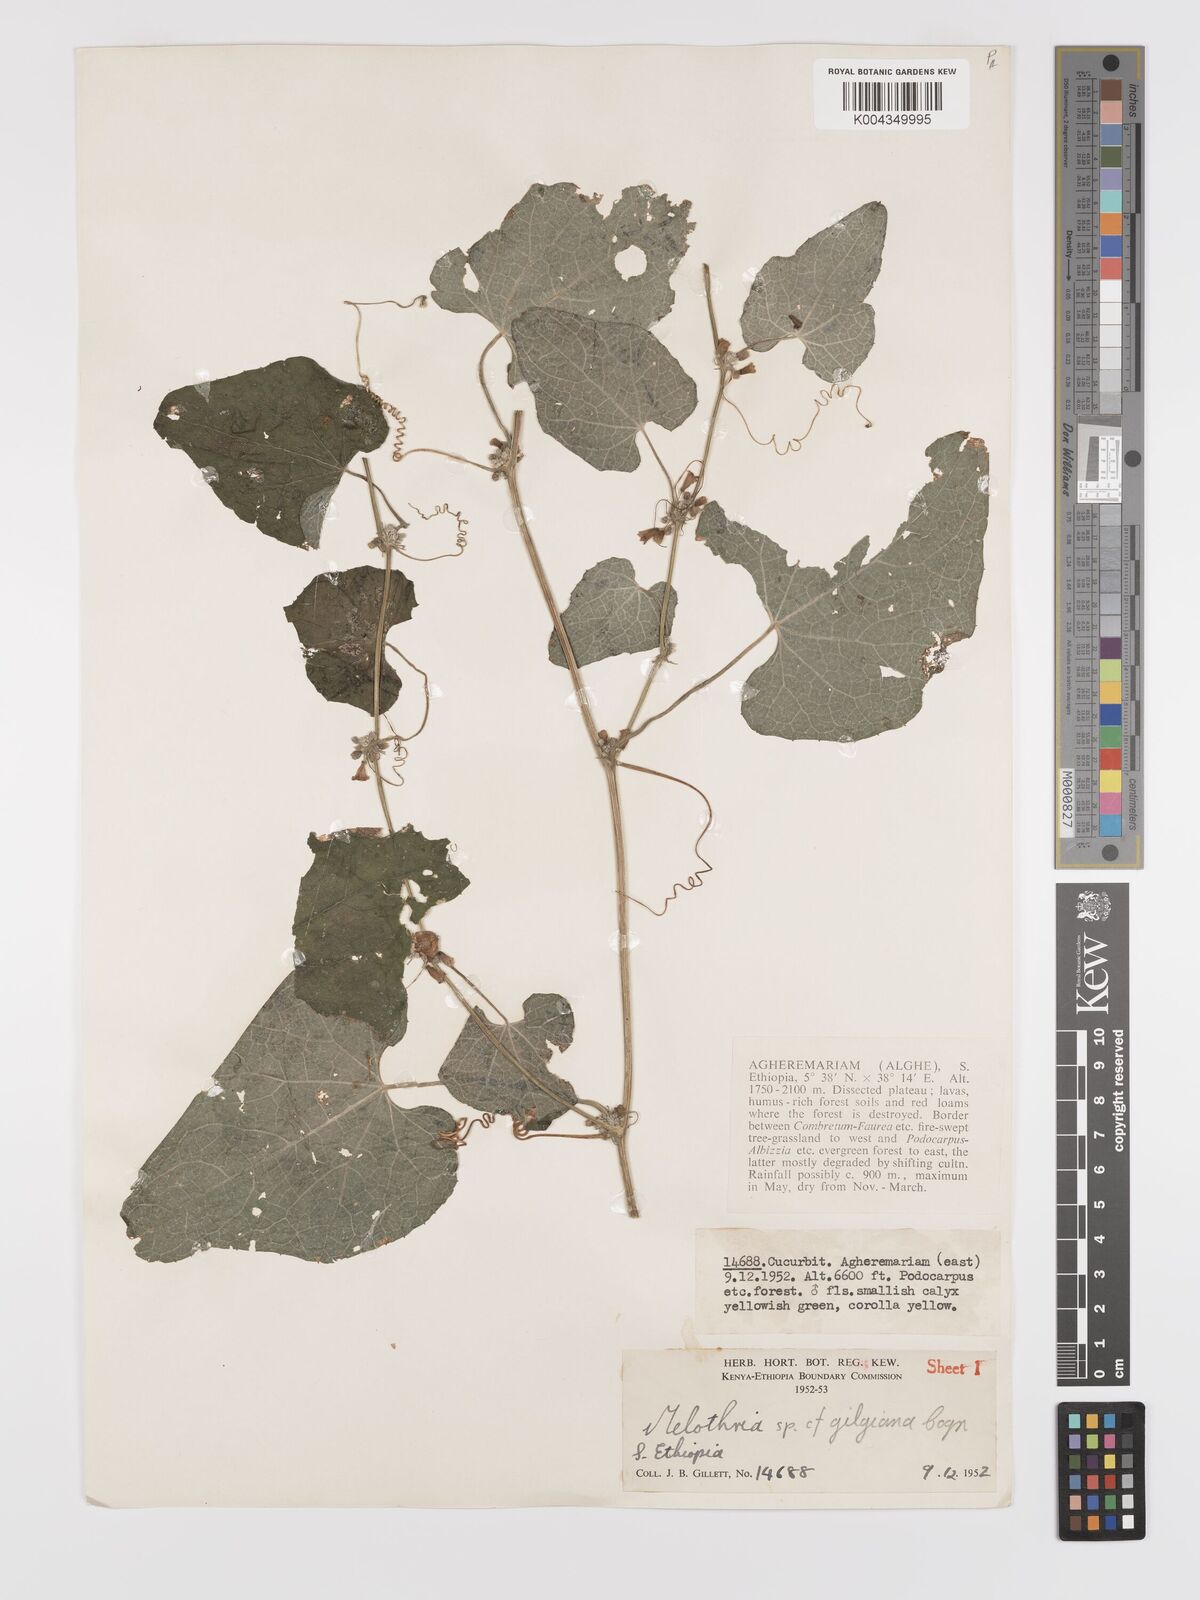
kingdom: Plantae
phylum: Tracheophyta
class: Magnoliopsida
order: Cucurbitales
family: Cucurbitaceae
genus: Zehneria
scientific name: Zehneria scabra
